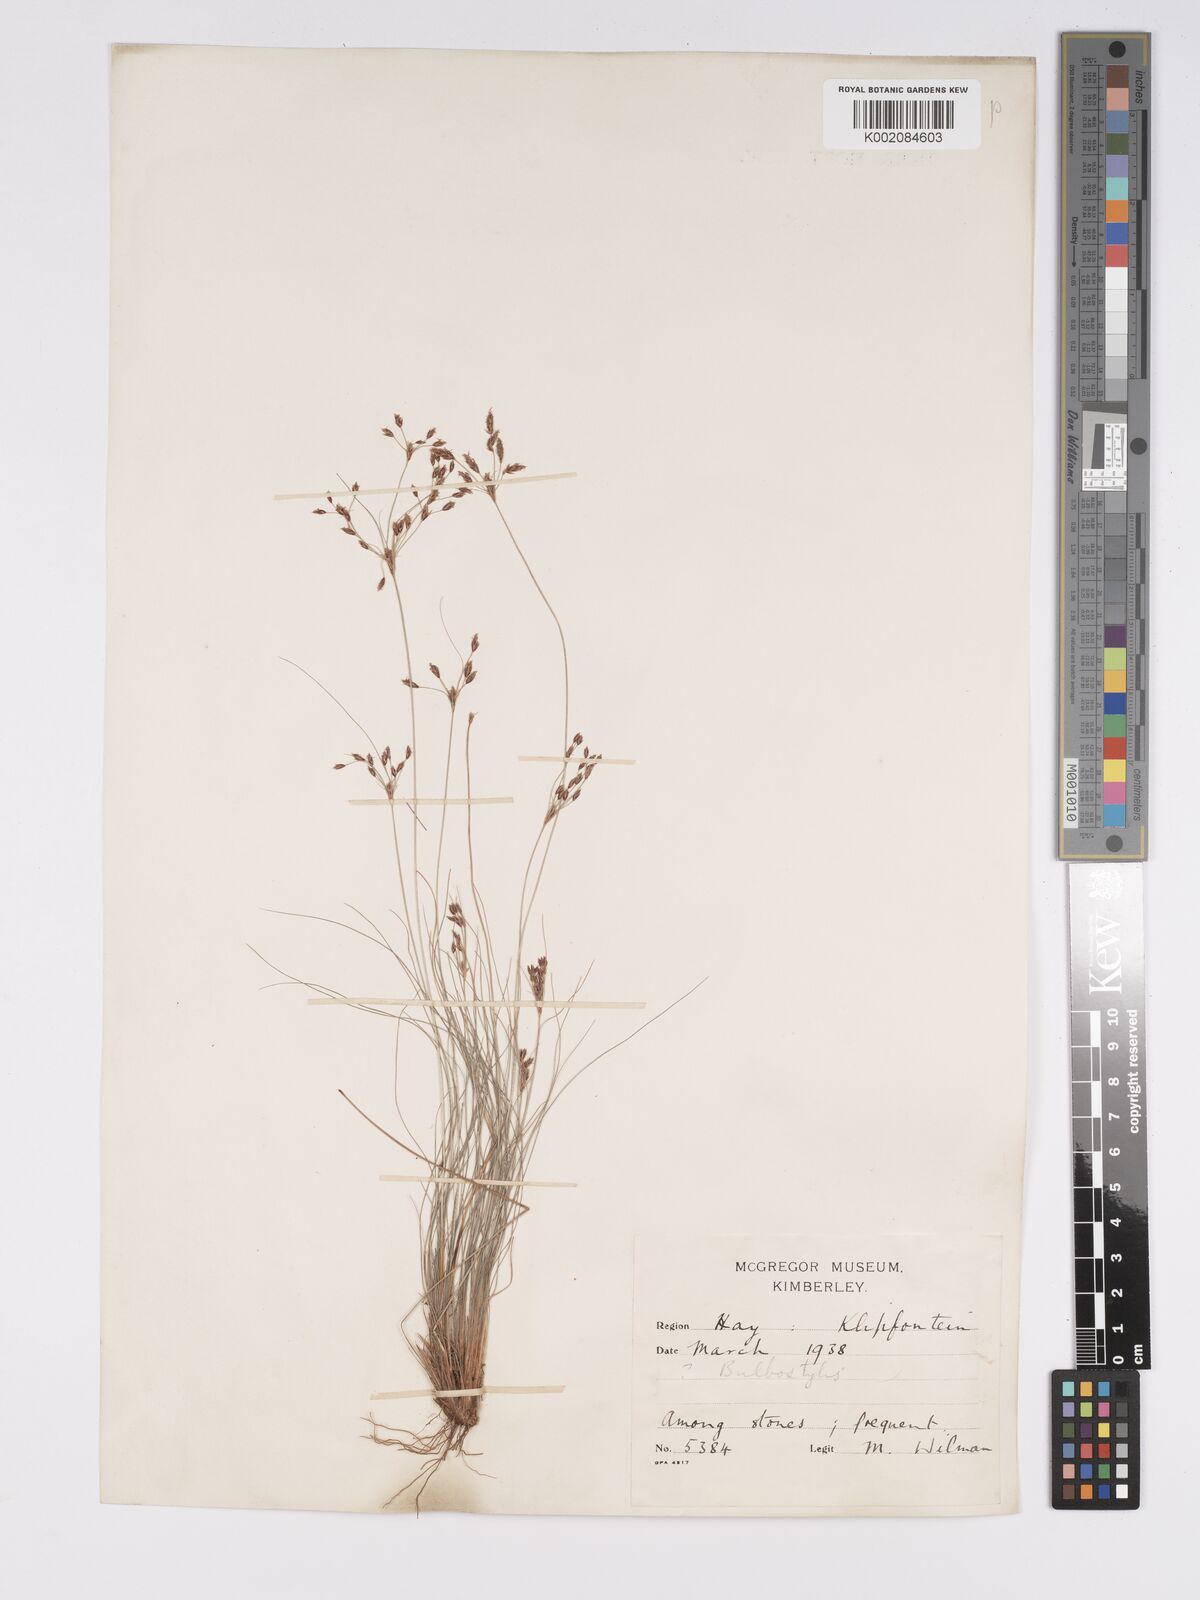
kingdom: Plantae
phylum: Tracheophyta
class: Liliopsida
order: Poales
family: Cyperaceae
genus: Bulbostylis
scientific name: Bulbostylis burchellii
